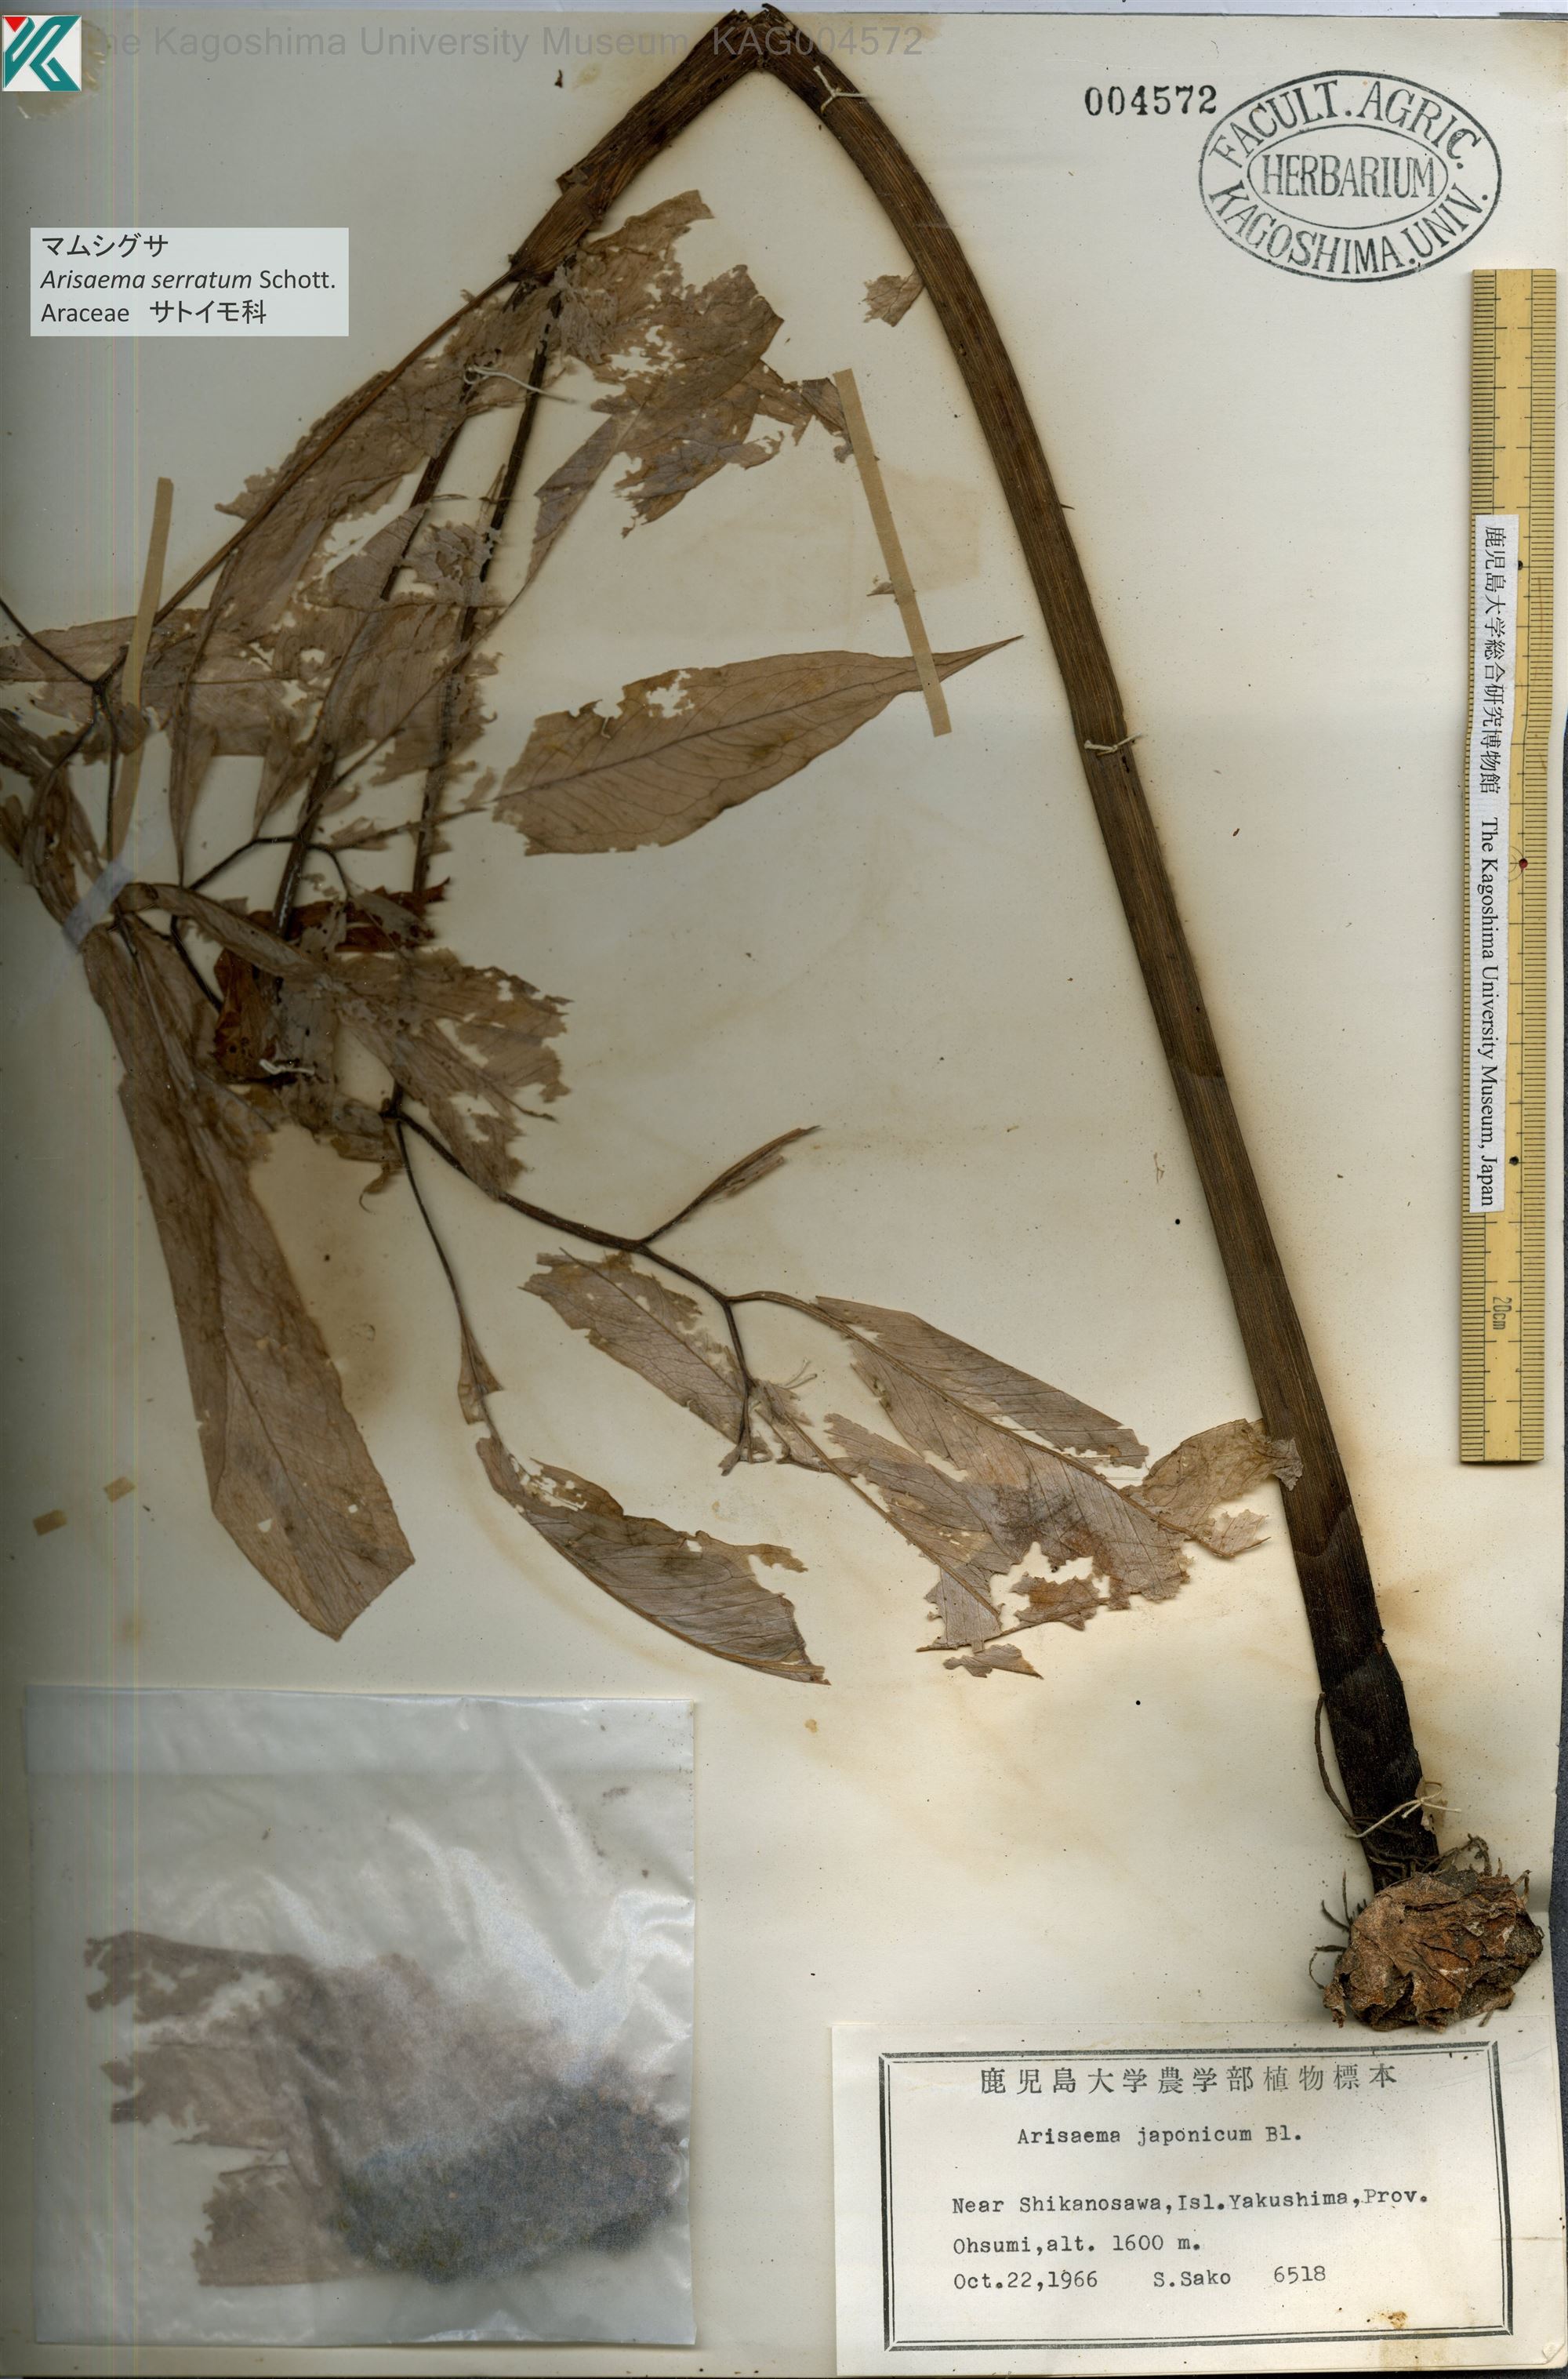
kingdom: Plantae
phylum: Tracheophyta
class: Liliopsida
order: Alismatales
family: Araceae
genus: Arisaema
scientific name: Arisaema serratum
